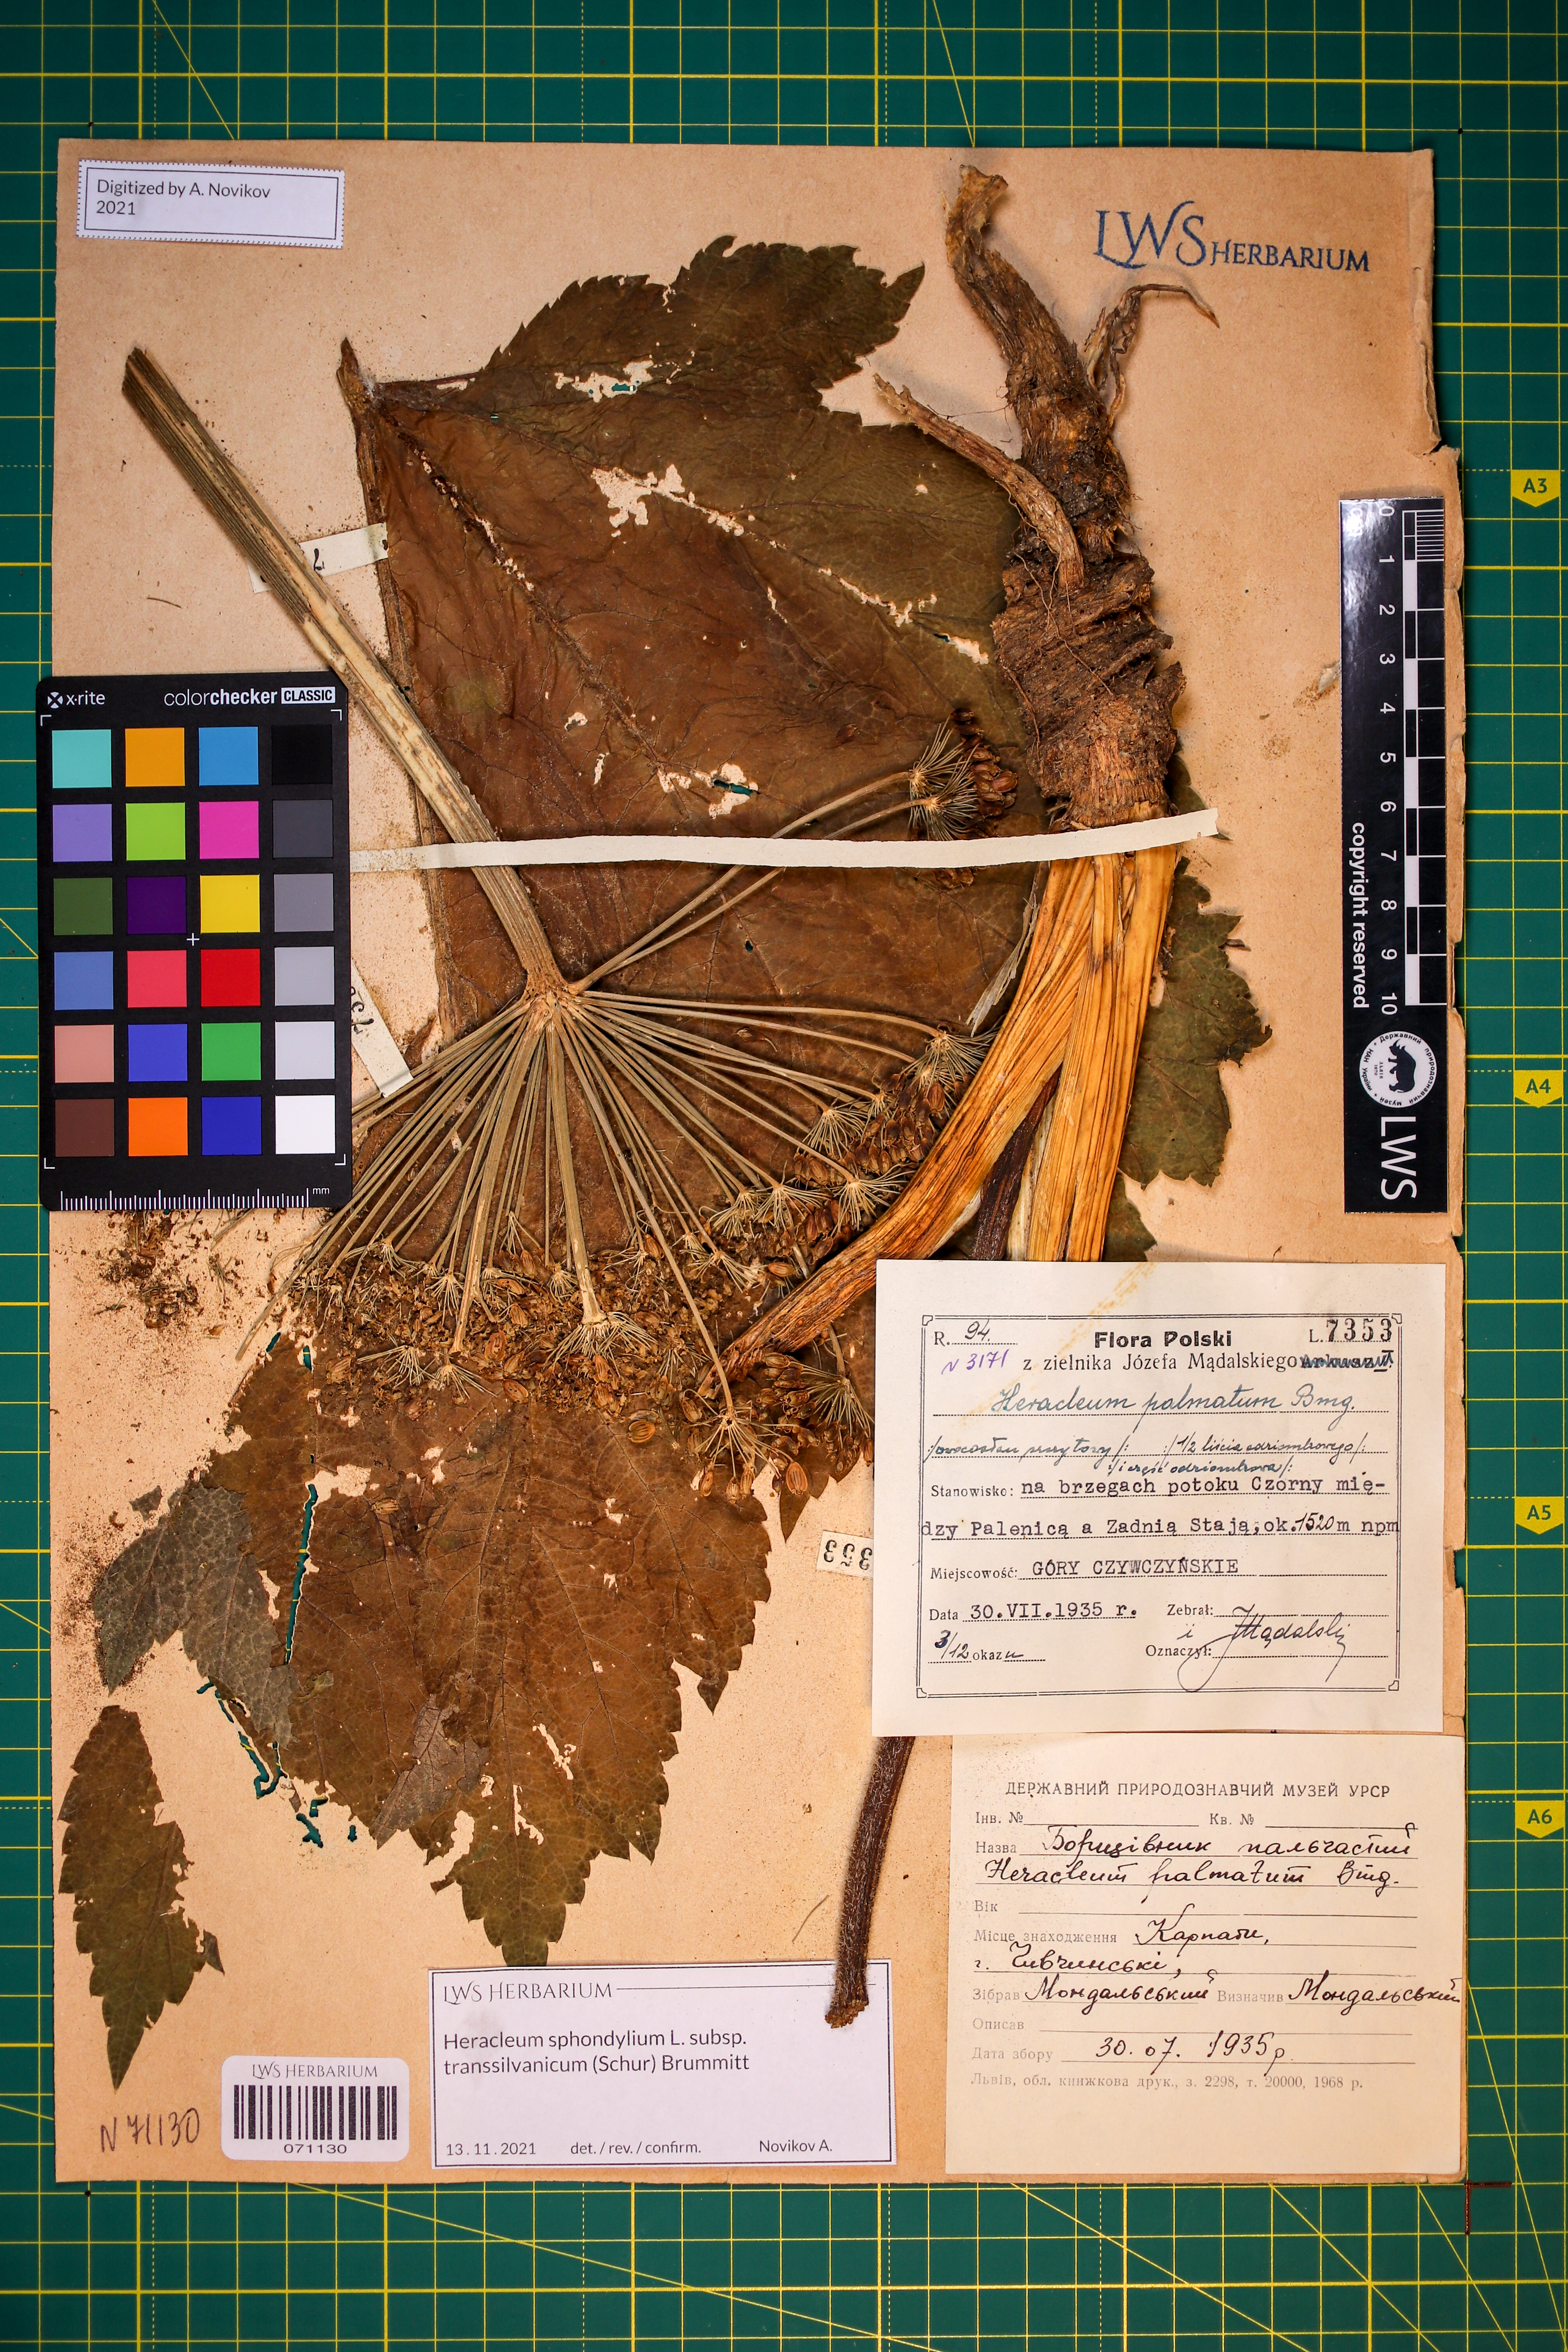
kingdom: Plantae
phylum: Tracheophyta
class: Magnoliopsida
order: Apiales
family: Apiaceae
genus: Heracleum
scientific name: Heracleum sphondylium
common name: Hogweed
